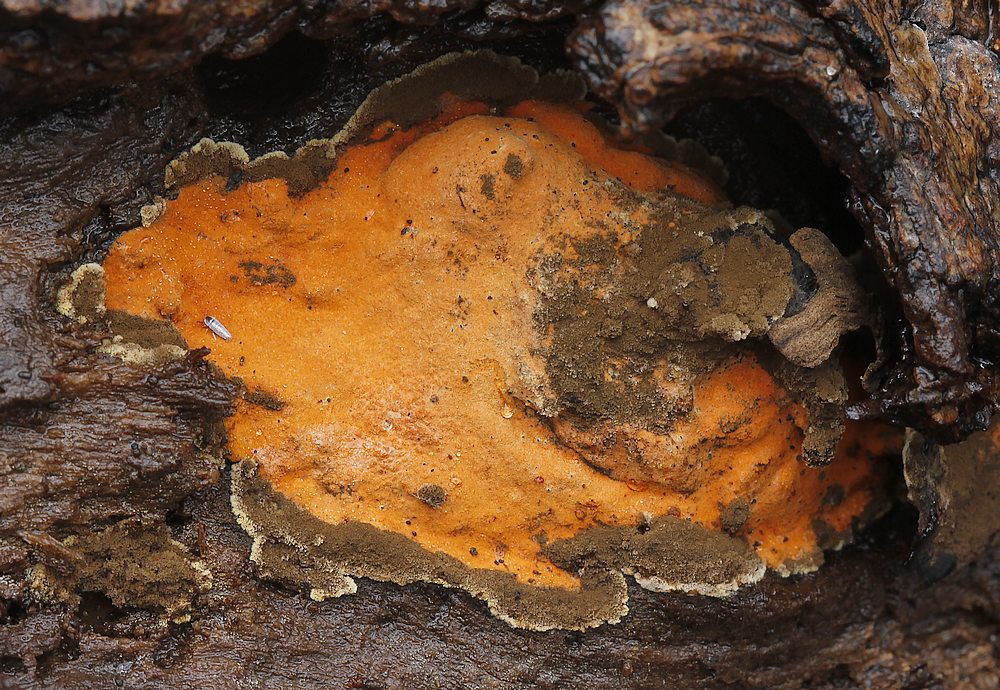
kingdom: Fungi
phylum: Ascomycota
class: Sordariomycetes
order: Xylariales
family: Hypoxylaceae
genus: Nodulisporium
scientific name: Nodulisporium
